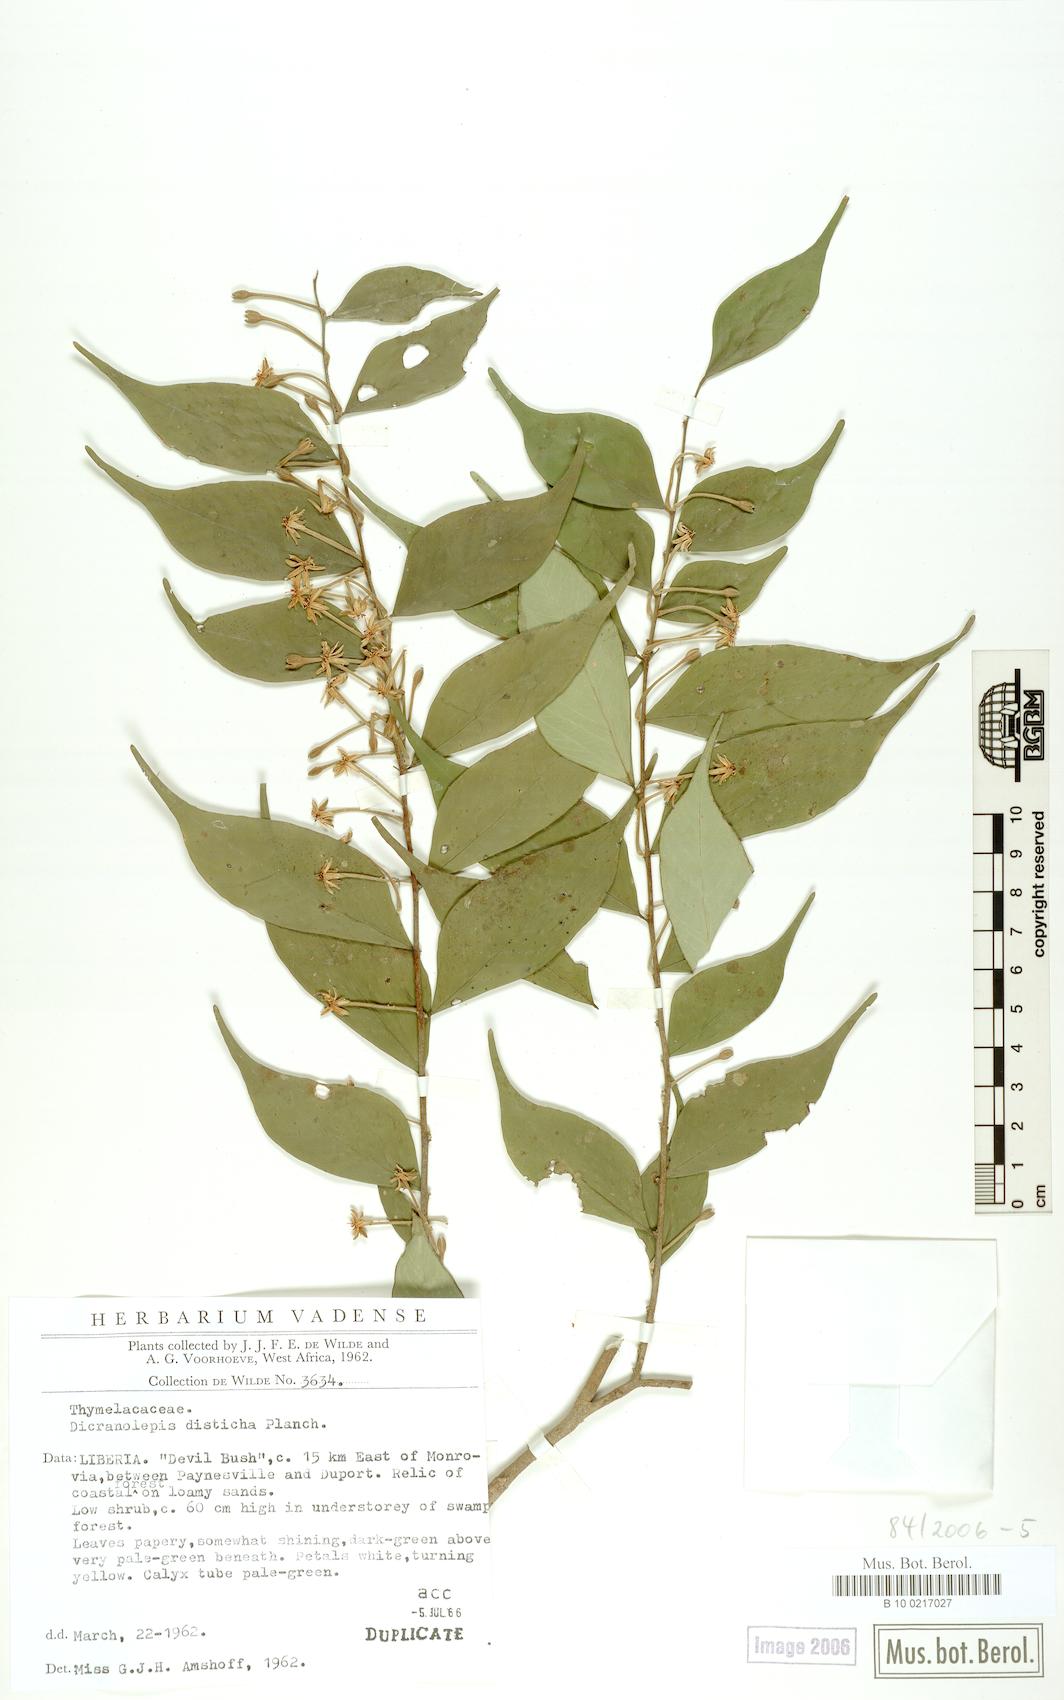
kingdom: Plantae
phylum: Tracheophyta
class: Magnoliopsida
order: Malvales
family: Thymelaeaceae
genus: Dicranolepis
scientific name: Dicranolepis disticha
